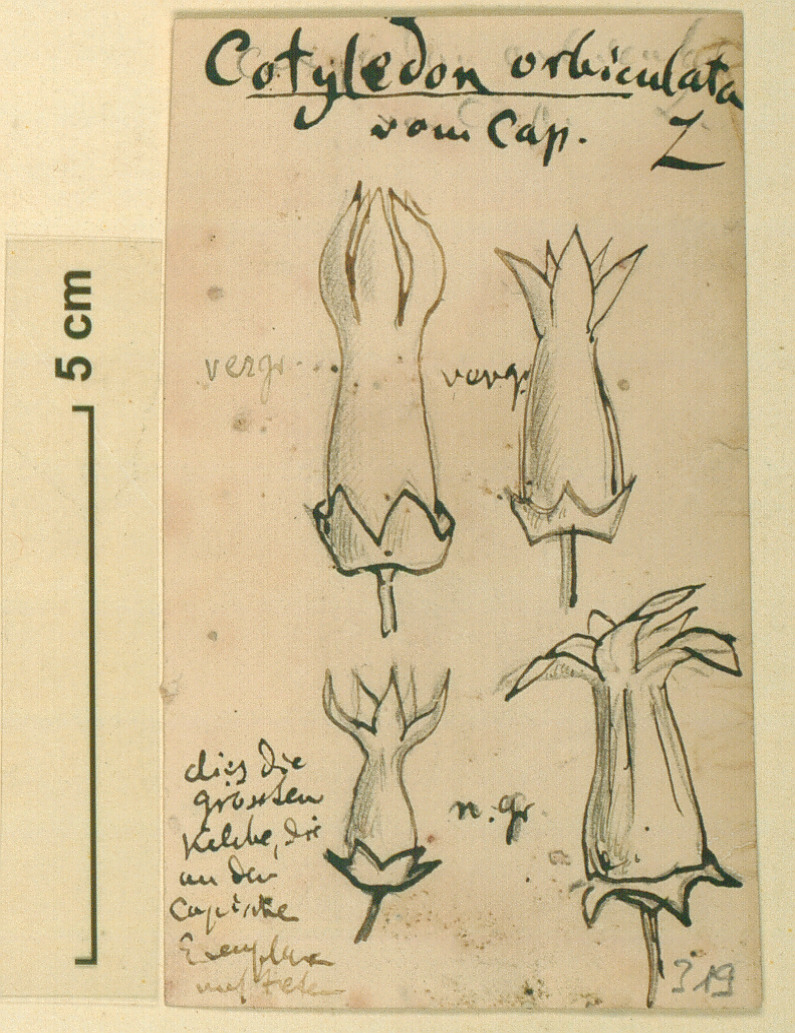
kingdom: Plantae
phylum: Tracheophyta
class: Magnoliopsida
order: Saxifragales
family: Crassulaceae
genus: Cotyledon
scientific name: Cotyledon orbiculata
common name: Pig's ear
